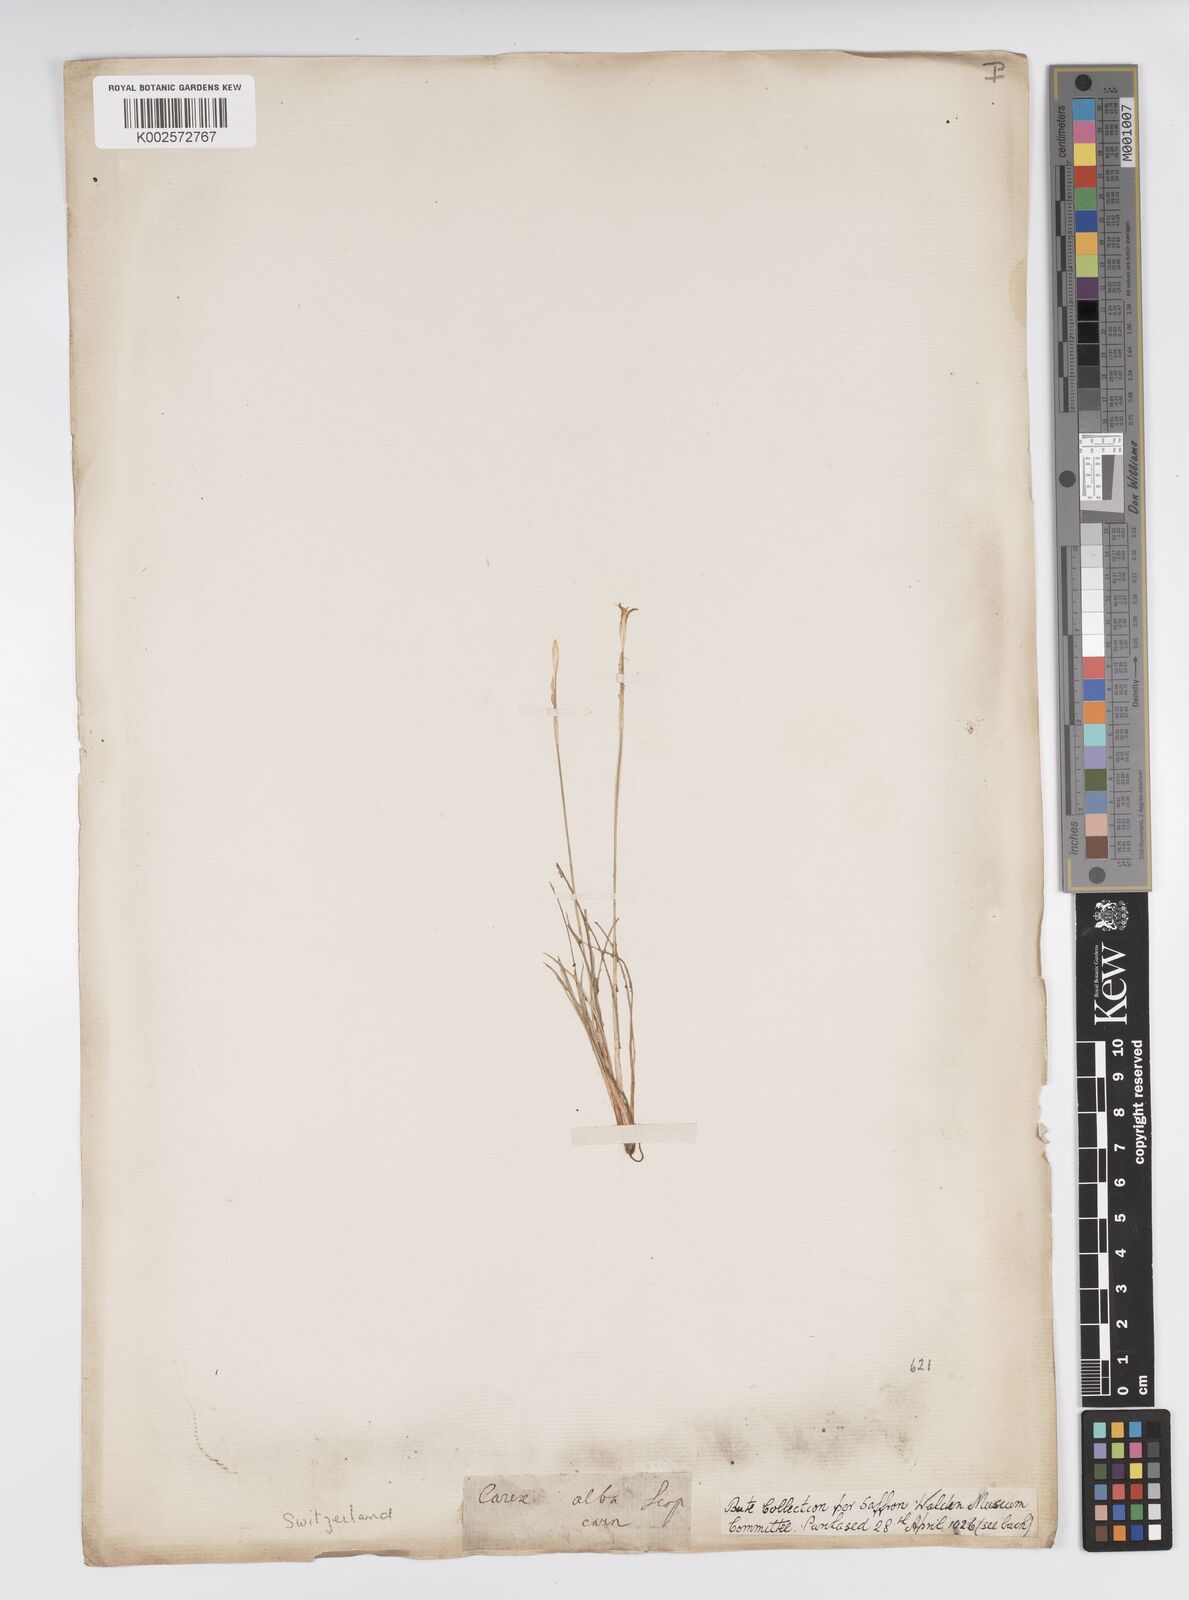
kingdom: Plantae
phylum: Tracheophyta
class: Liliopsida
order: Poales
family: Cyperaceae
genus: Carex
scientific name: Carex alba
